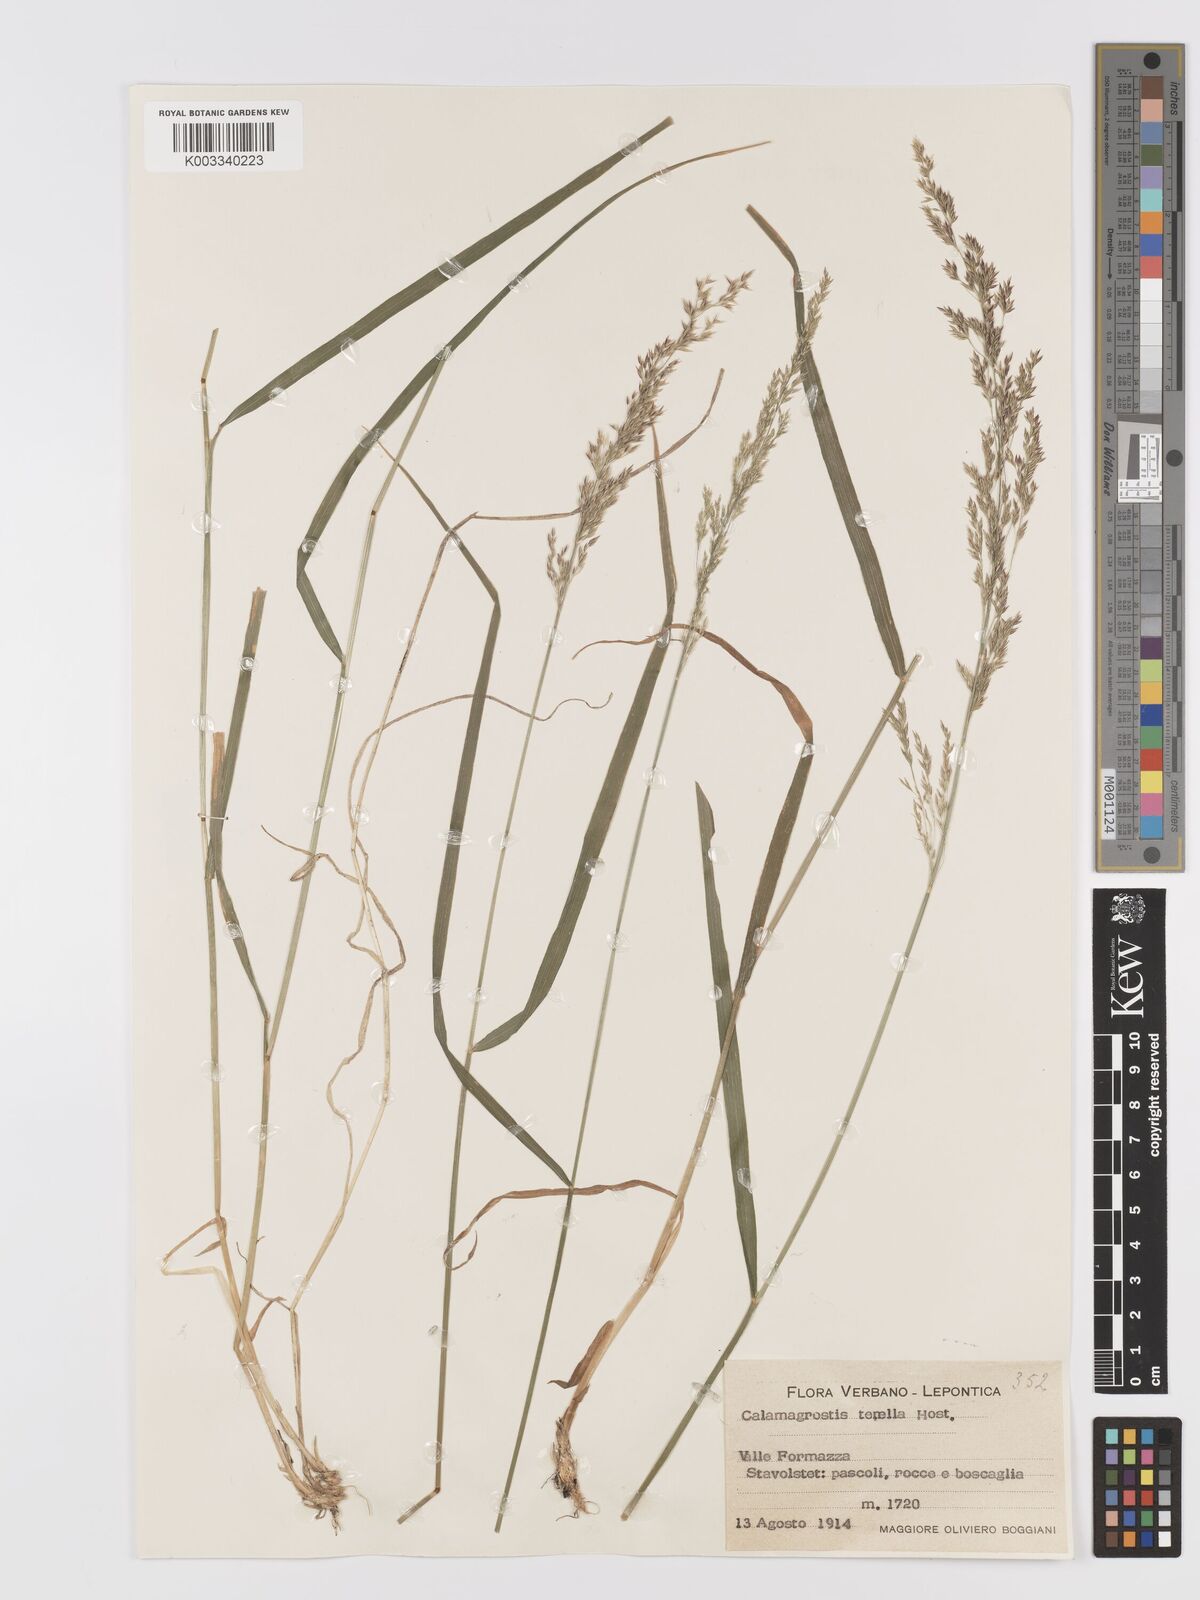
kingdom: Plantae
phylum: Tracheophyta
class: Liliopsida
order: Poales
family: Poaceae
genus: Agrostis
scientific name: Agrostis schraderiana
